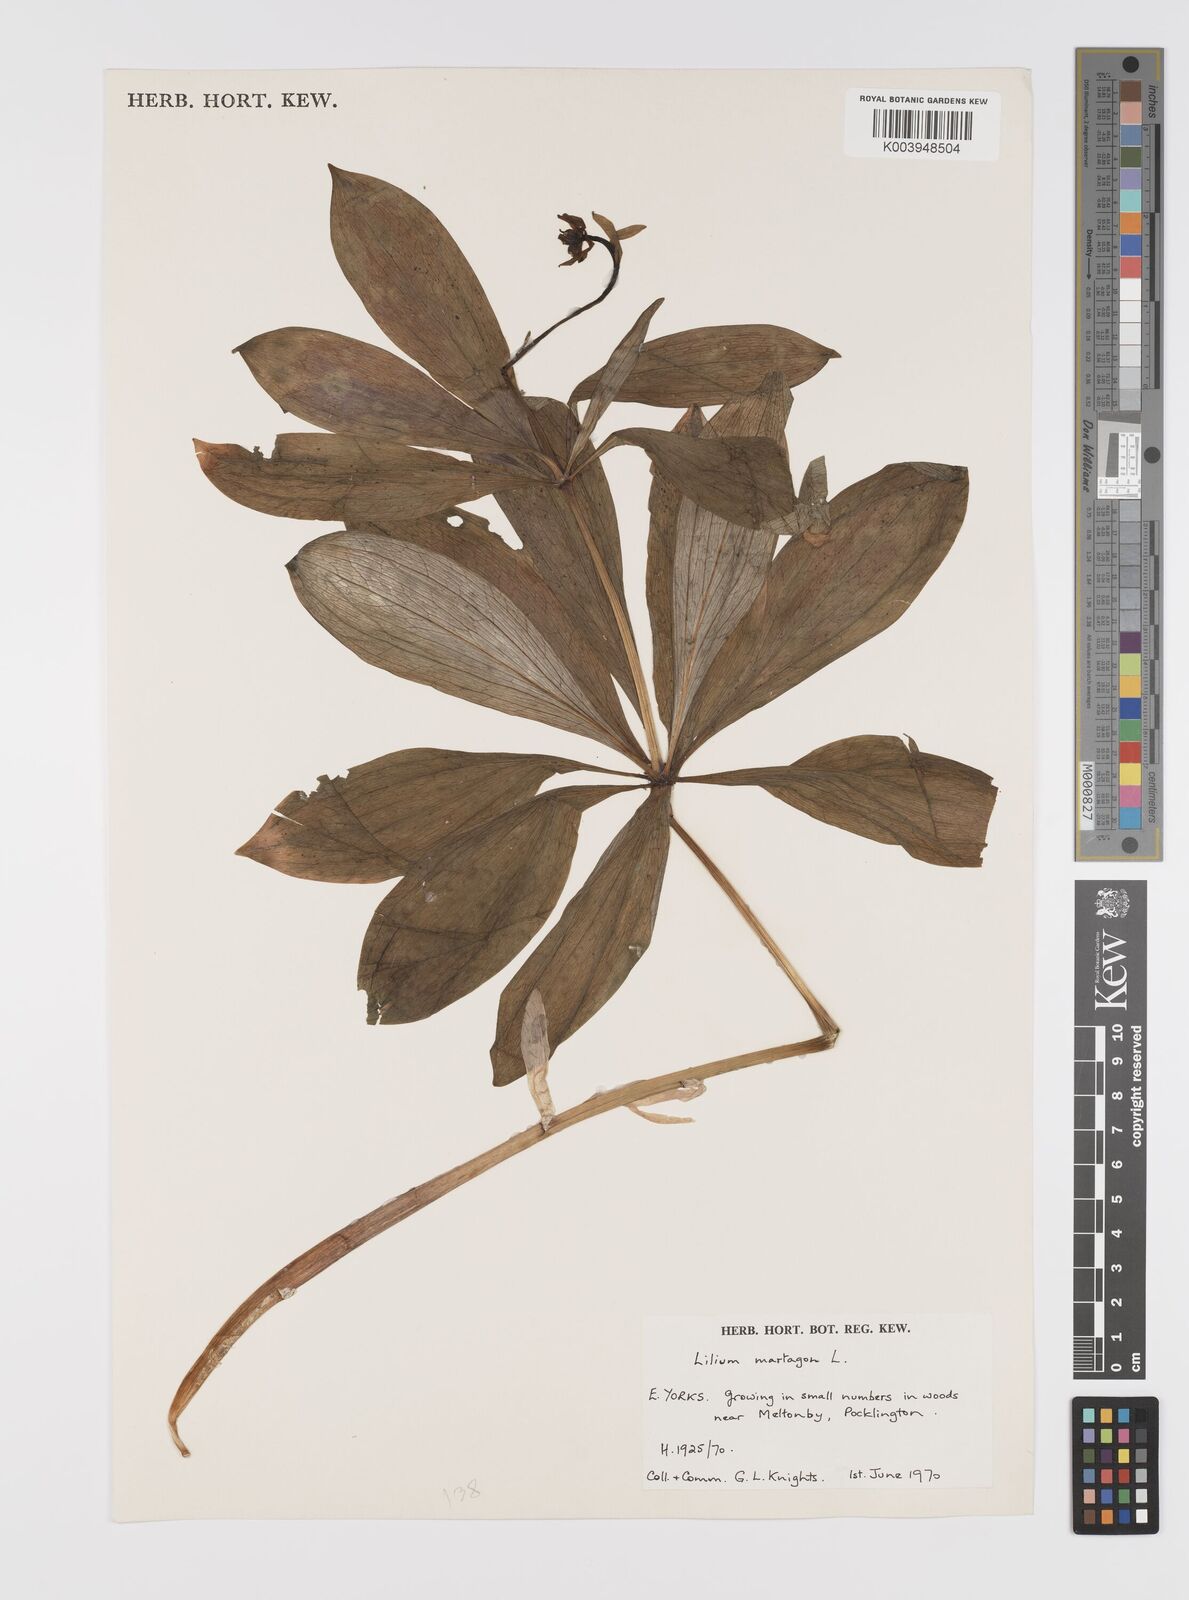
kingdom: Plantae
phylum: Tracheophyta
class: Liliopsida
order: Liliales
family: Liliaceae
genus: Lilium
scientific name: Lilium martagon
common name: Martagon lily
